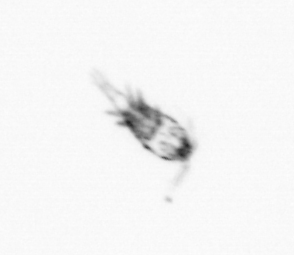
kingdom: Animalia
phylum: Arthropoda
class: Copepoda
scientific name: Copepoda
